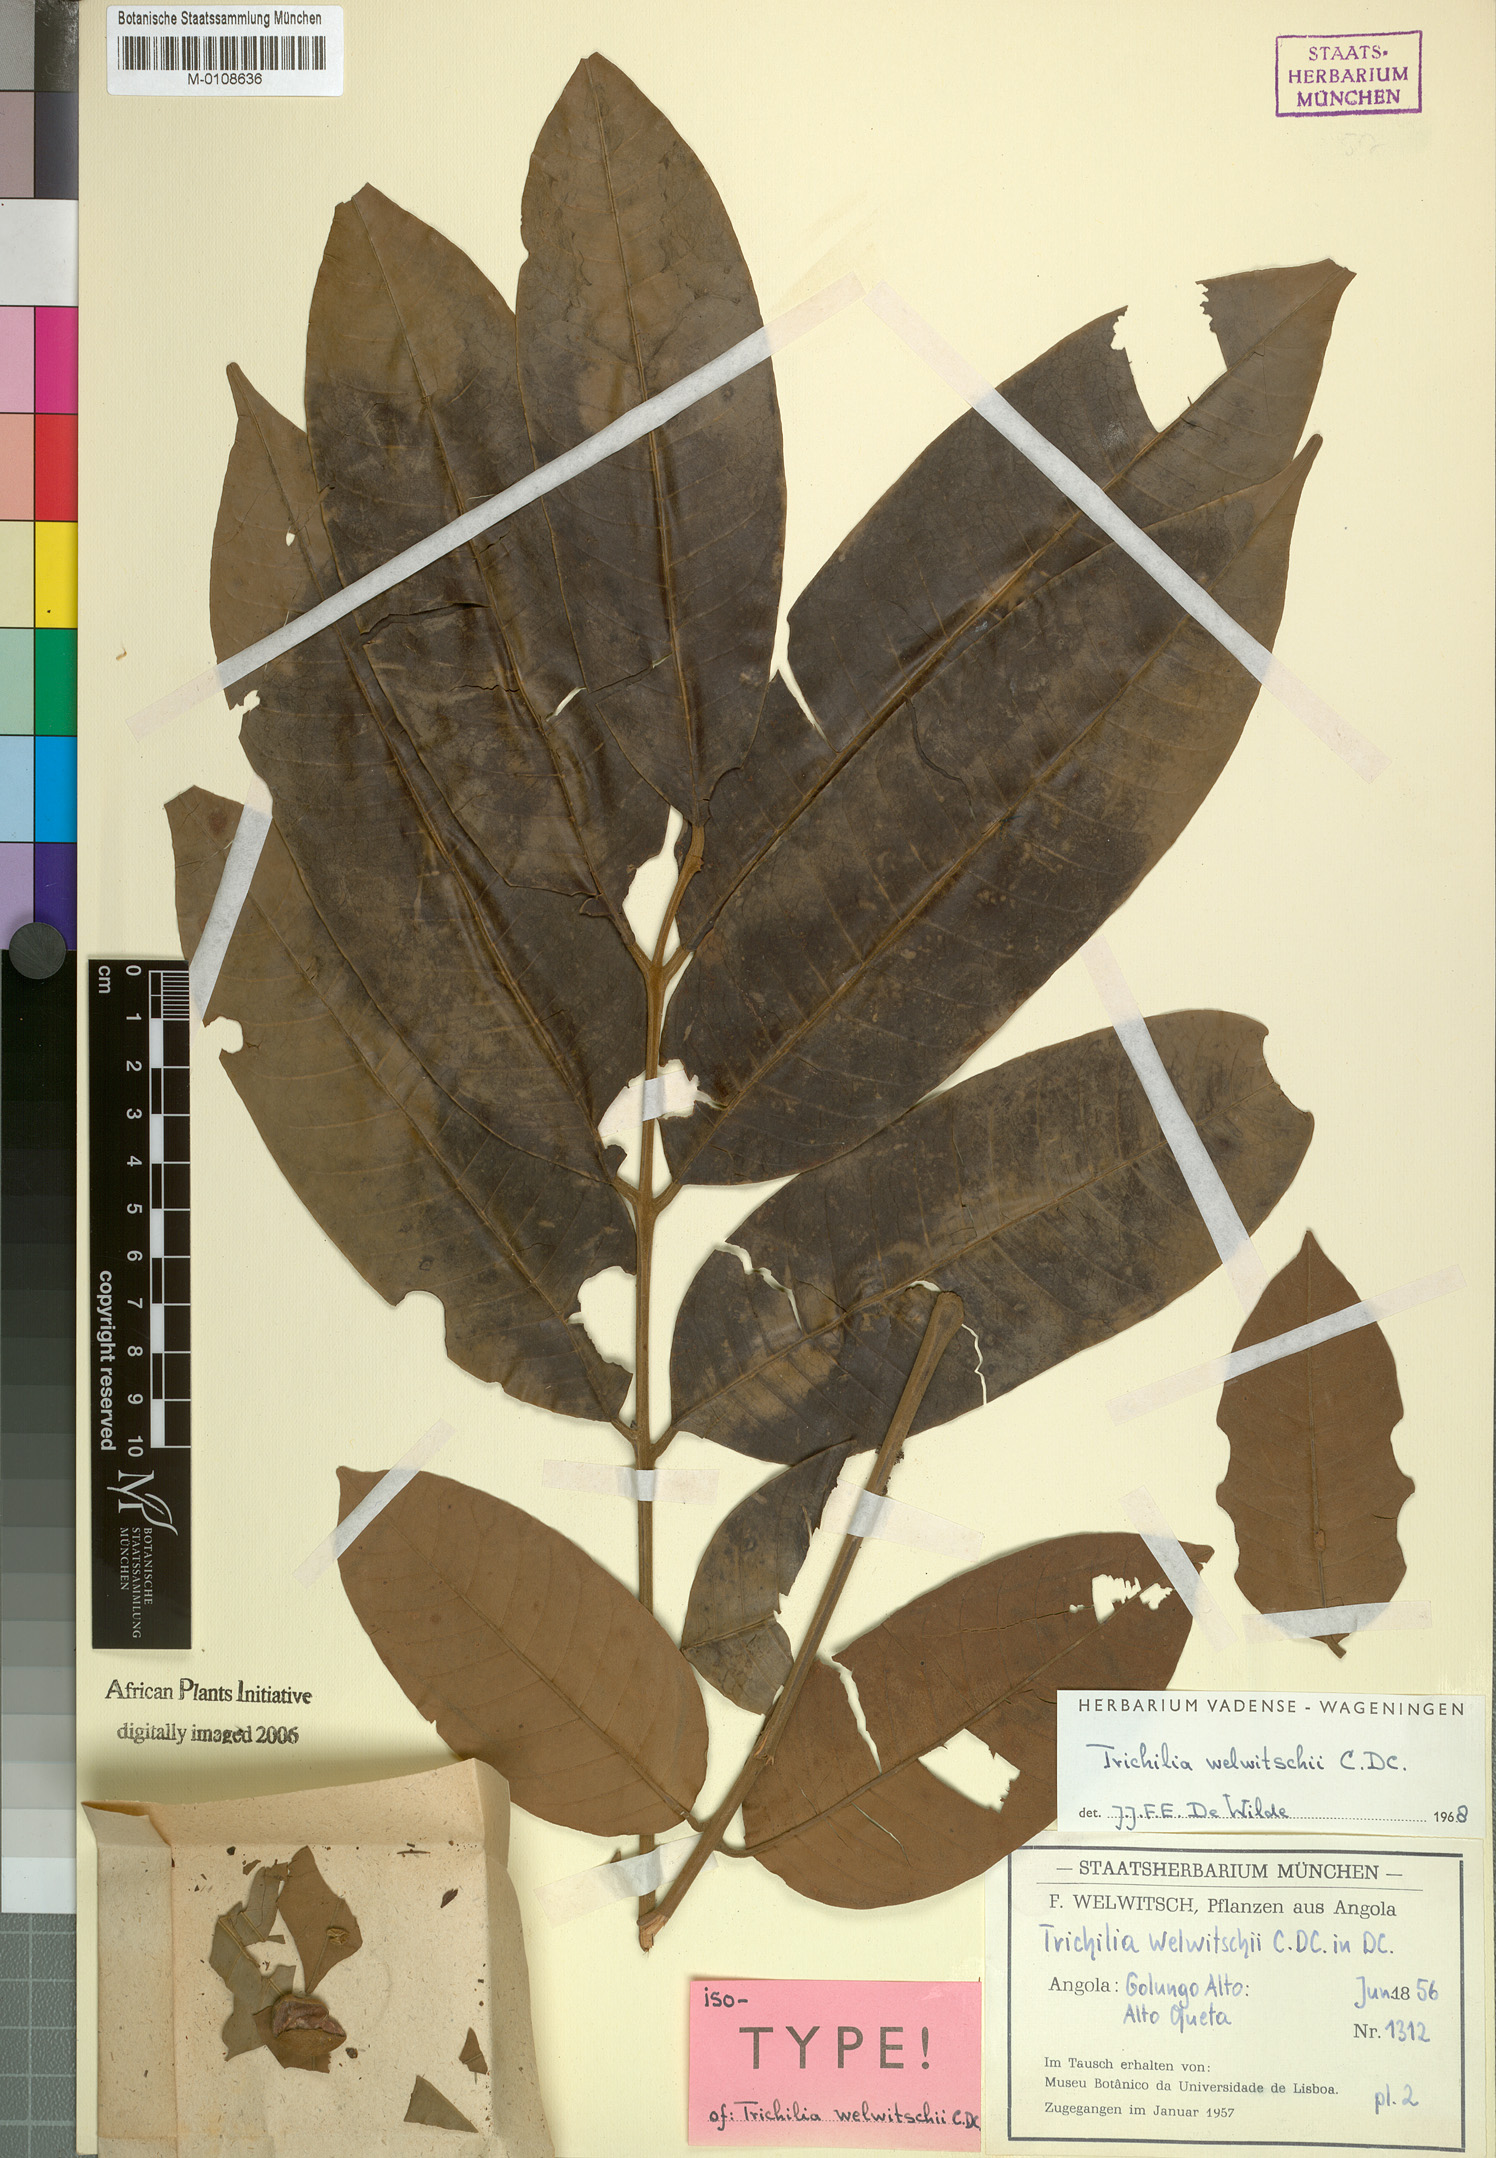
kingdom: Plantae
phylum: Tracheophyta
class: Magnoliopsida
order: Sapindales
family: Meliaceae
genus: Trichilia
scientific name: Trichilia welwitschii
